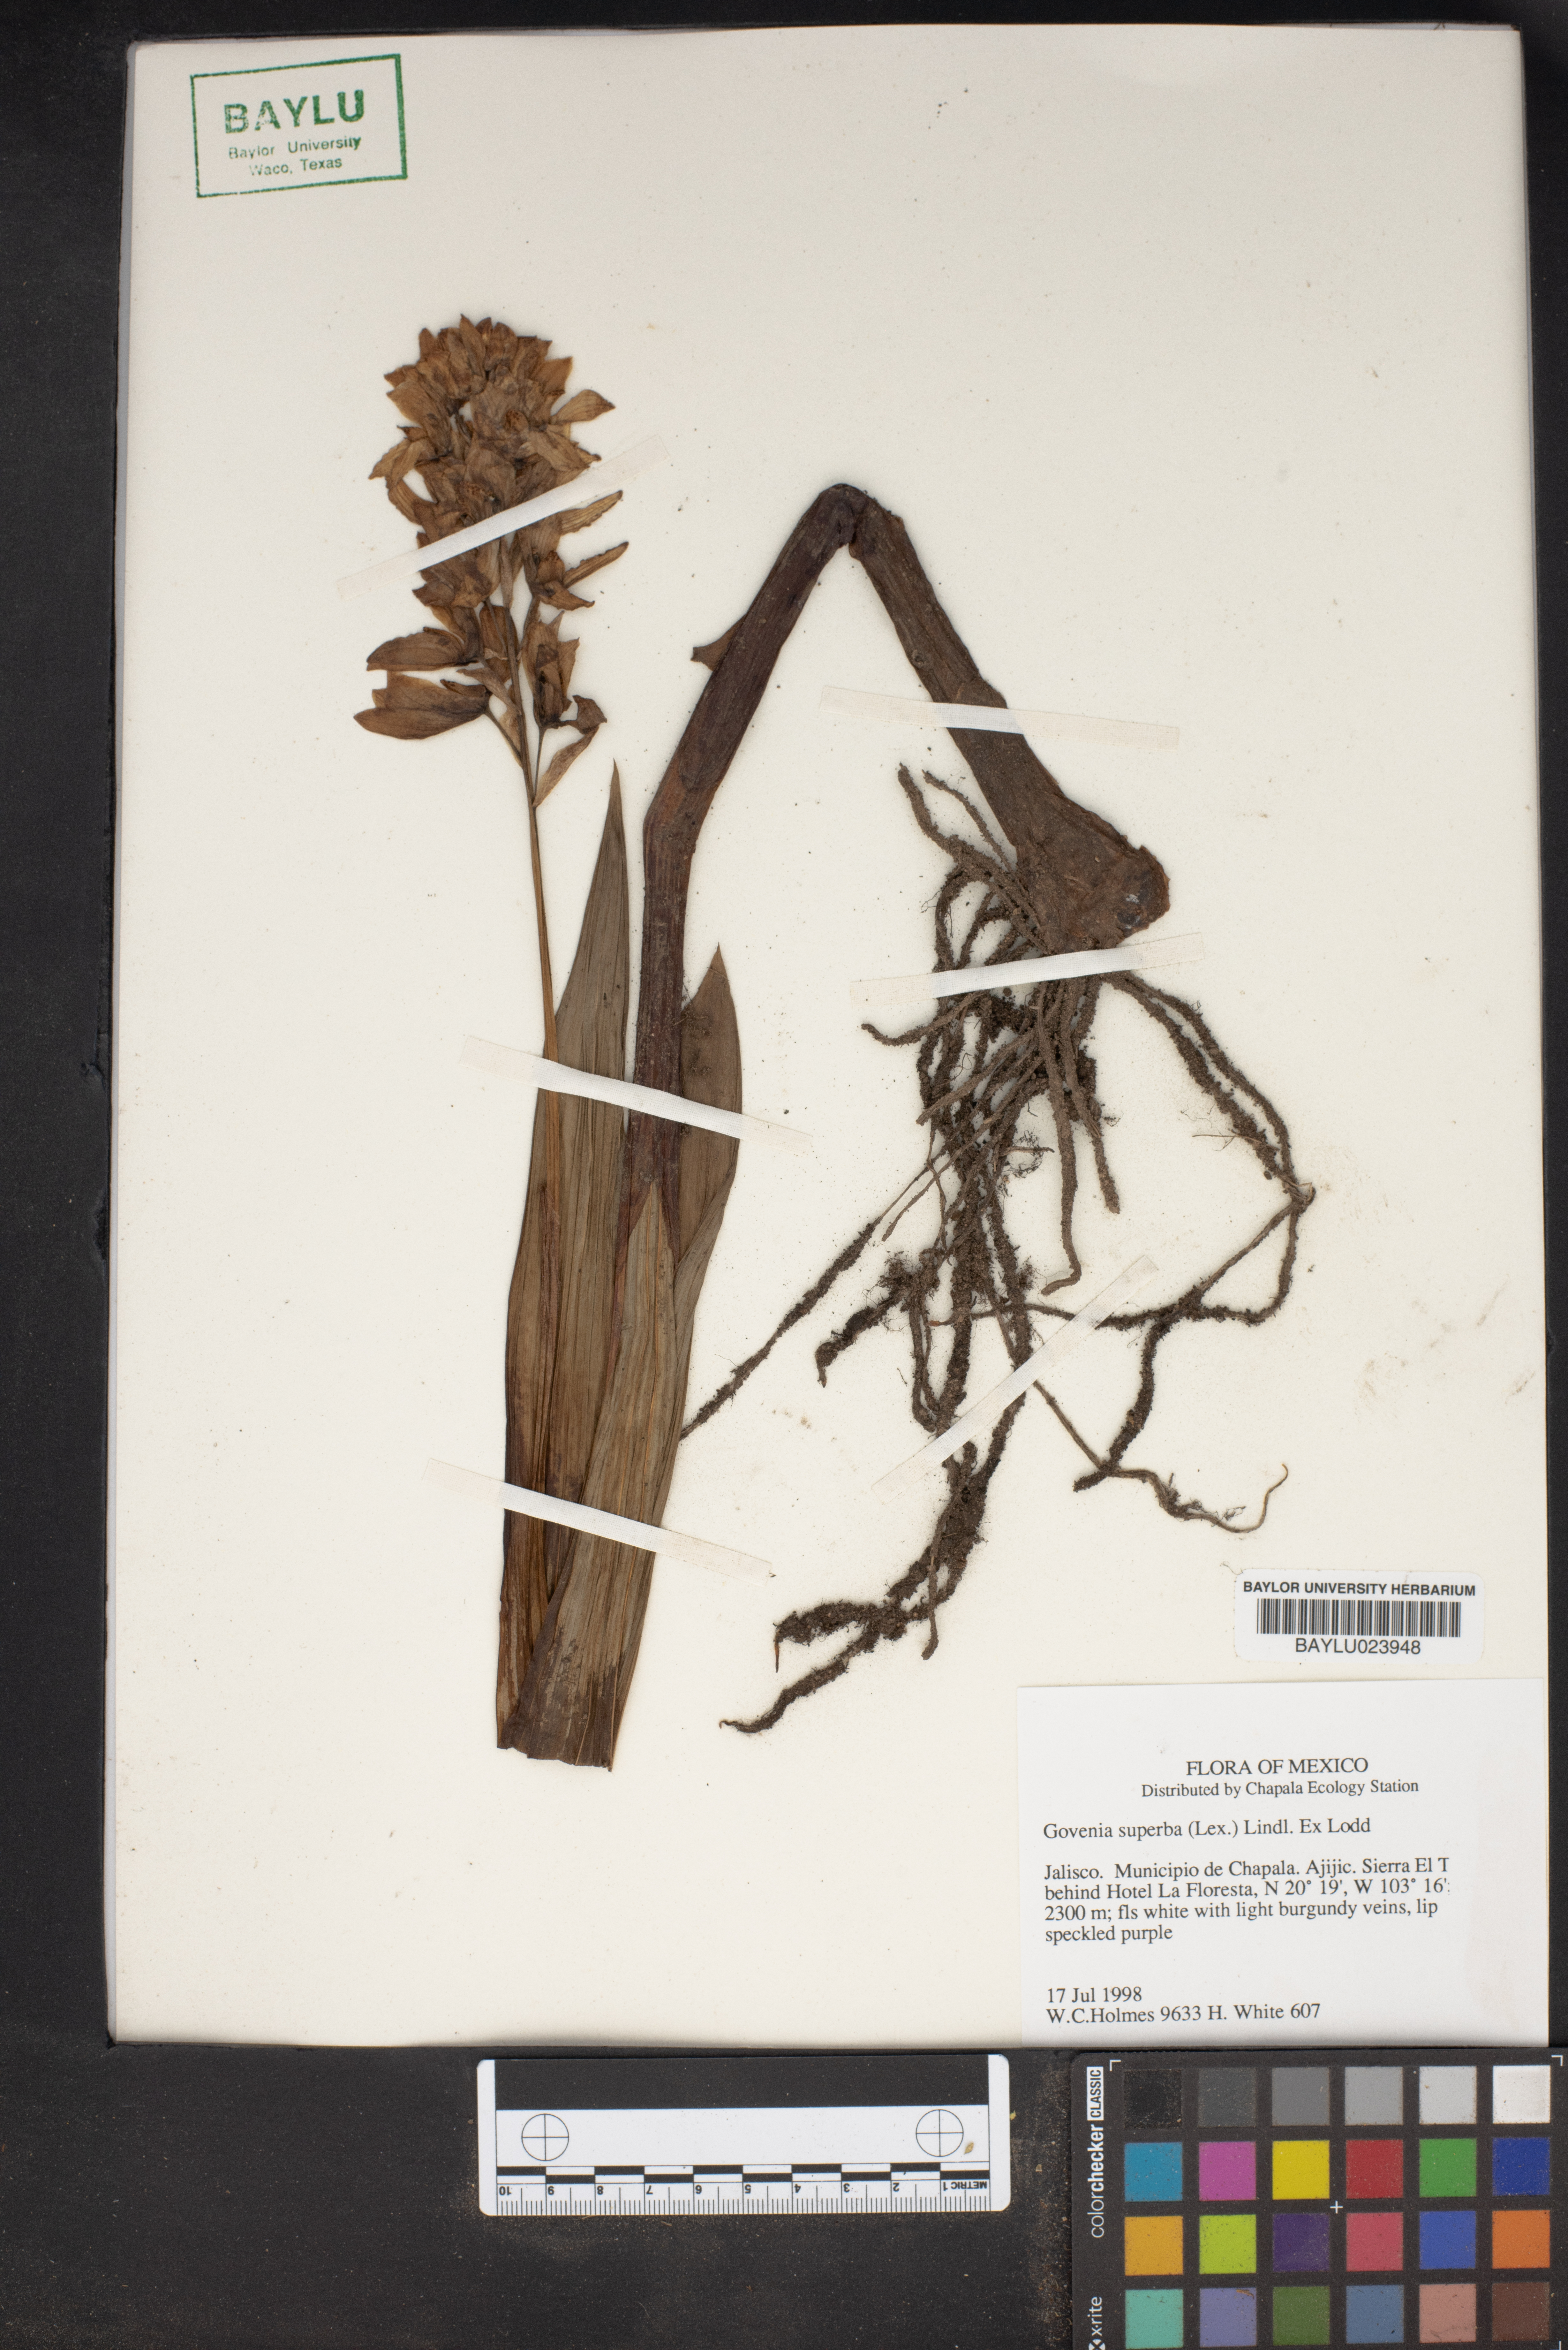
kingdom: Plantae
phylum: Tracheophyta
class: Liliopsida
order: Asparagales
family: Orchidaceae
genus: Govenia
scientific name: Govenia superba
